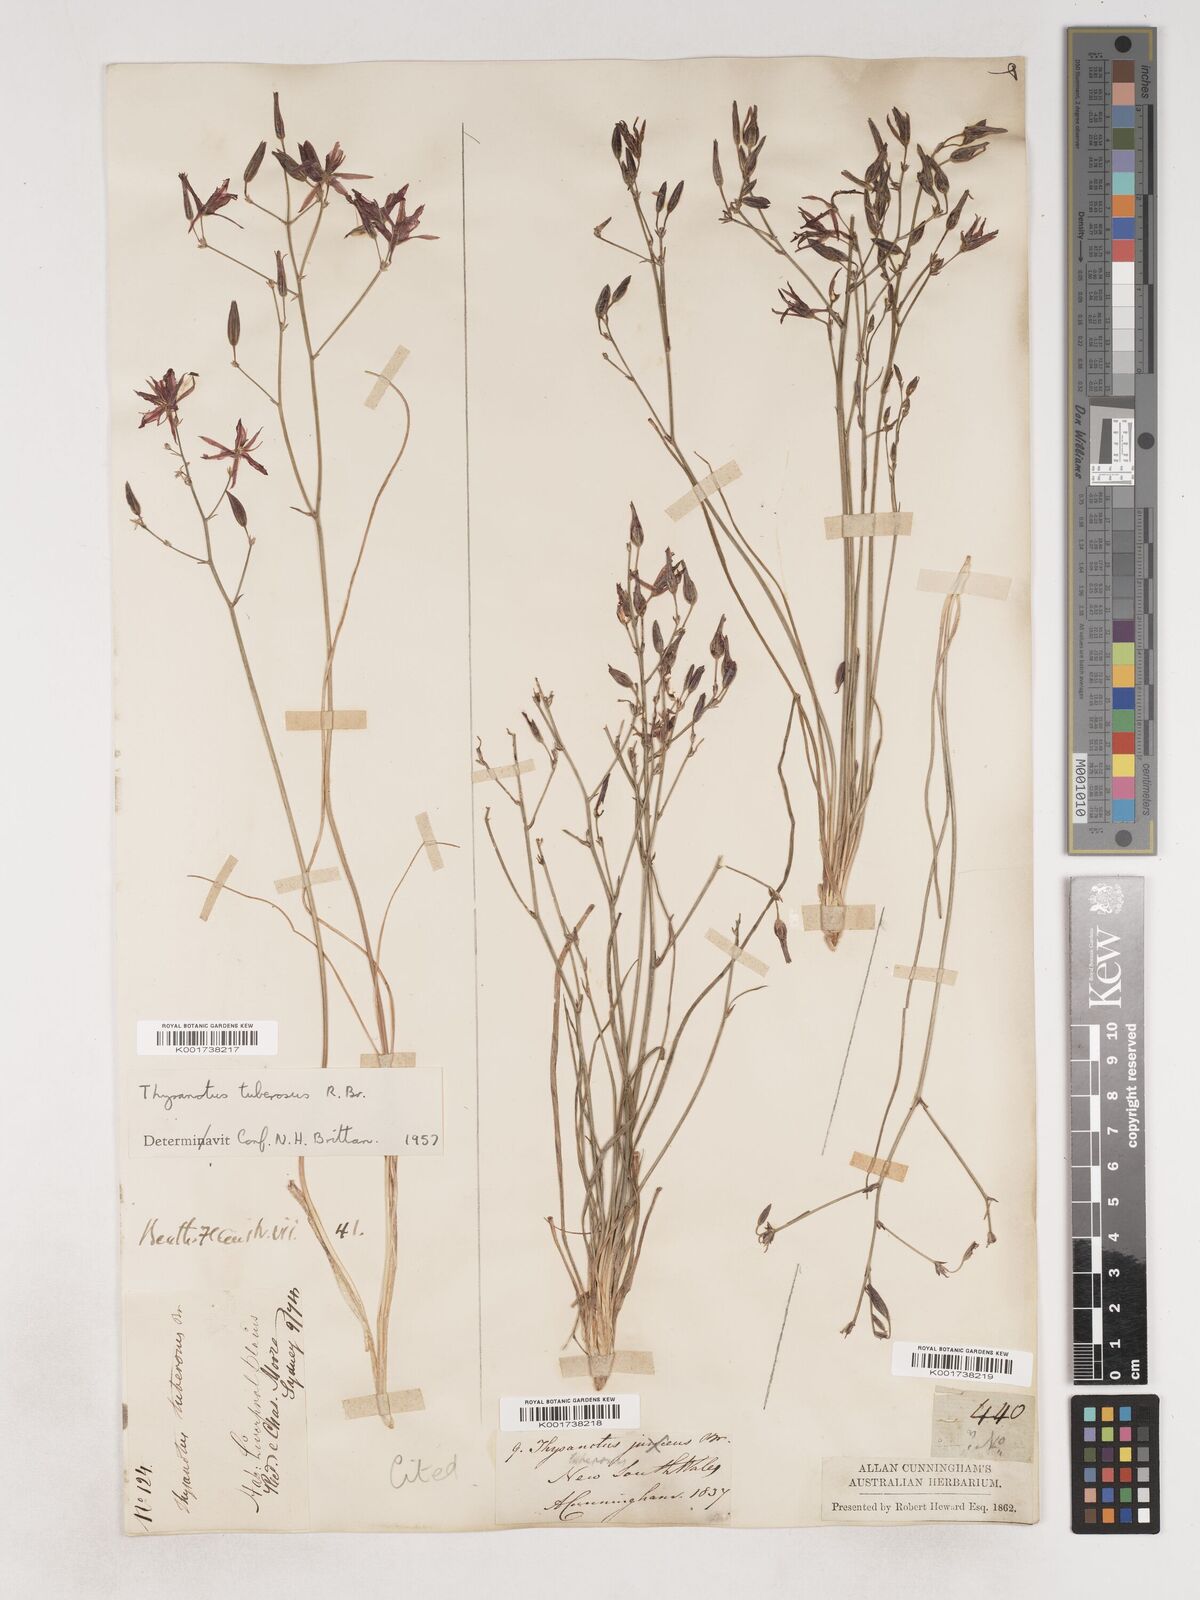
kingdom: Plantae
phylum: Tracheophyta
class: Liliopsida
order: Asparagales
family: Asparagaceae
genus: Thysanotus
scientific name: Thysanotus tuberosus
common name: Common fringed-lily
